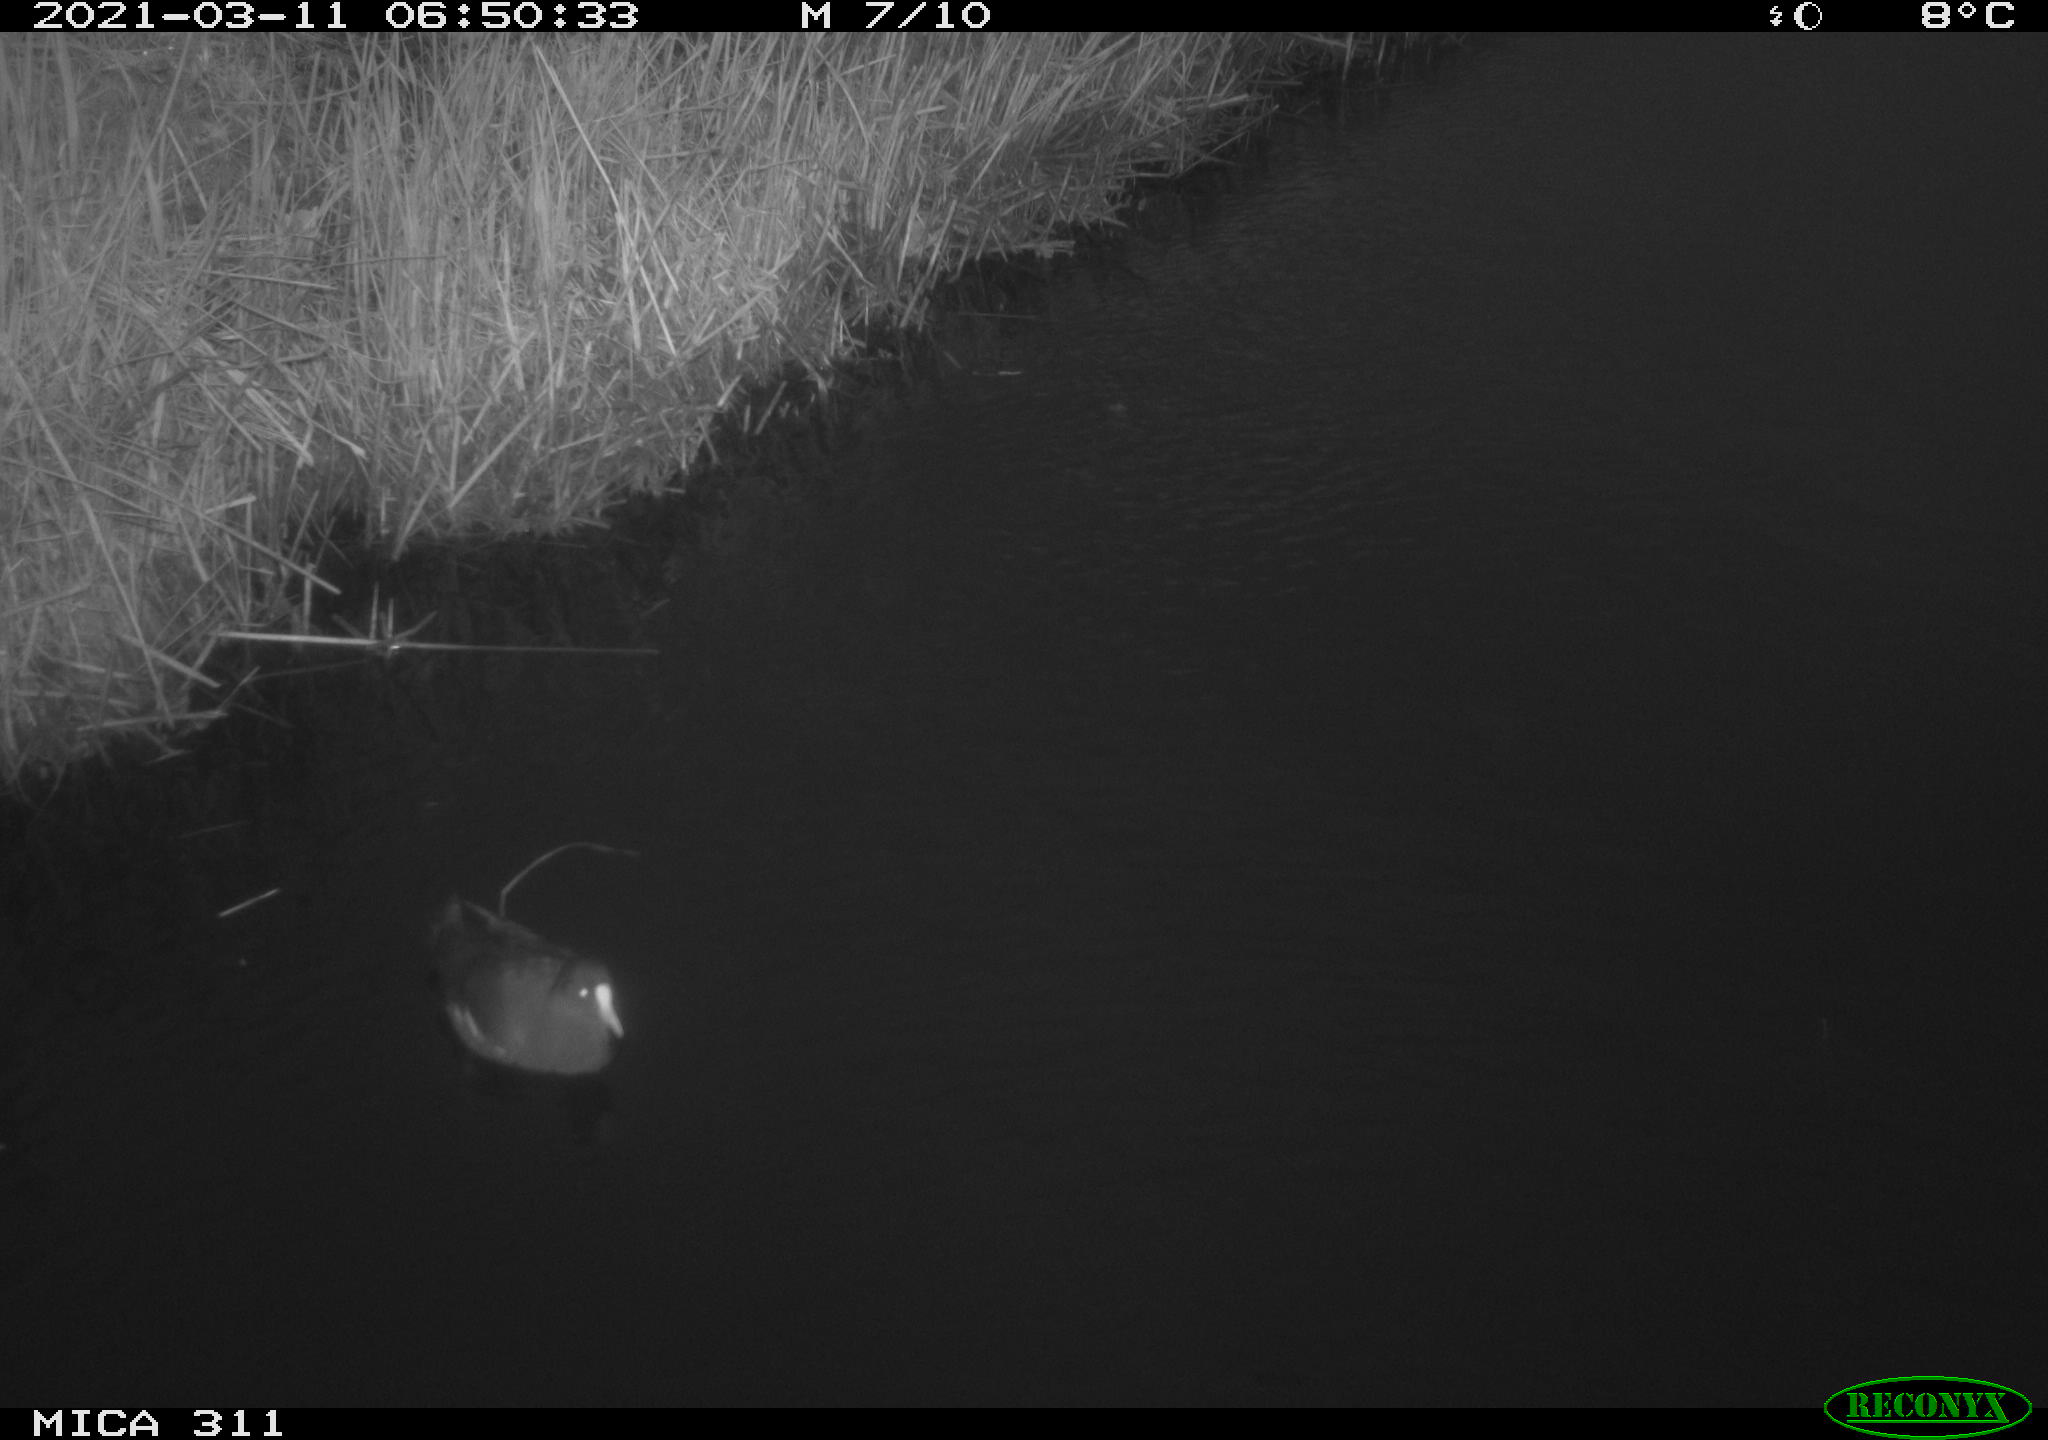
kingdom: Animalia
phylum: Chordata
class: Aves
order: Gruiformes
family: Rallidae
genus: Gallinula
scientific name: Gallinula chloropus
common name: Common moorhen
